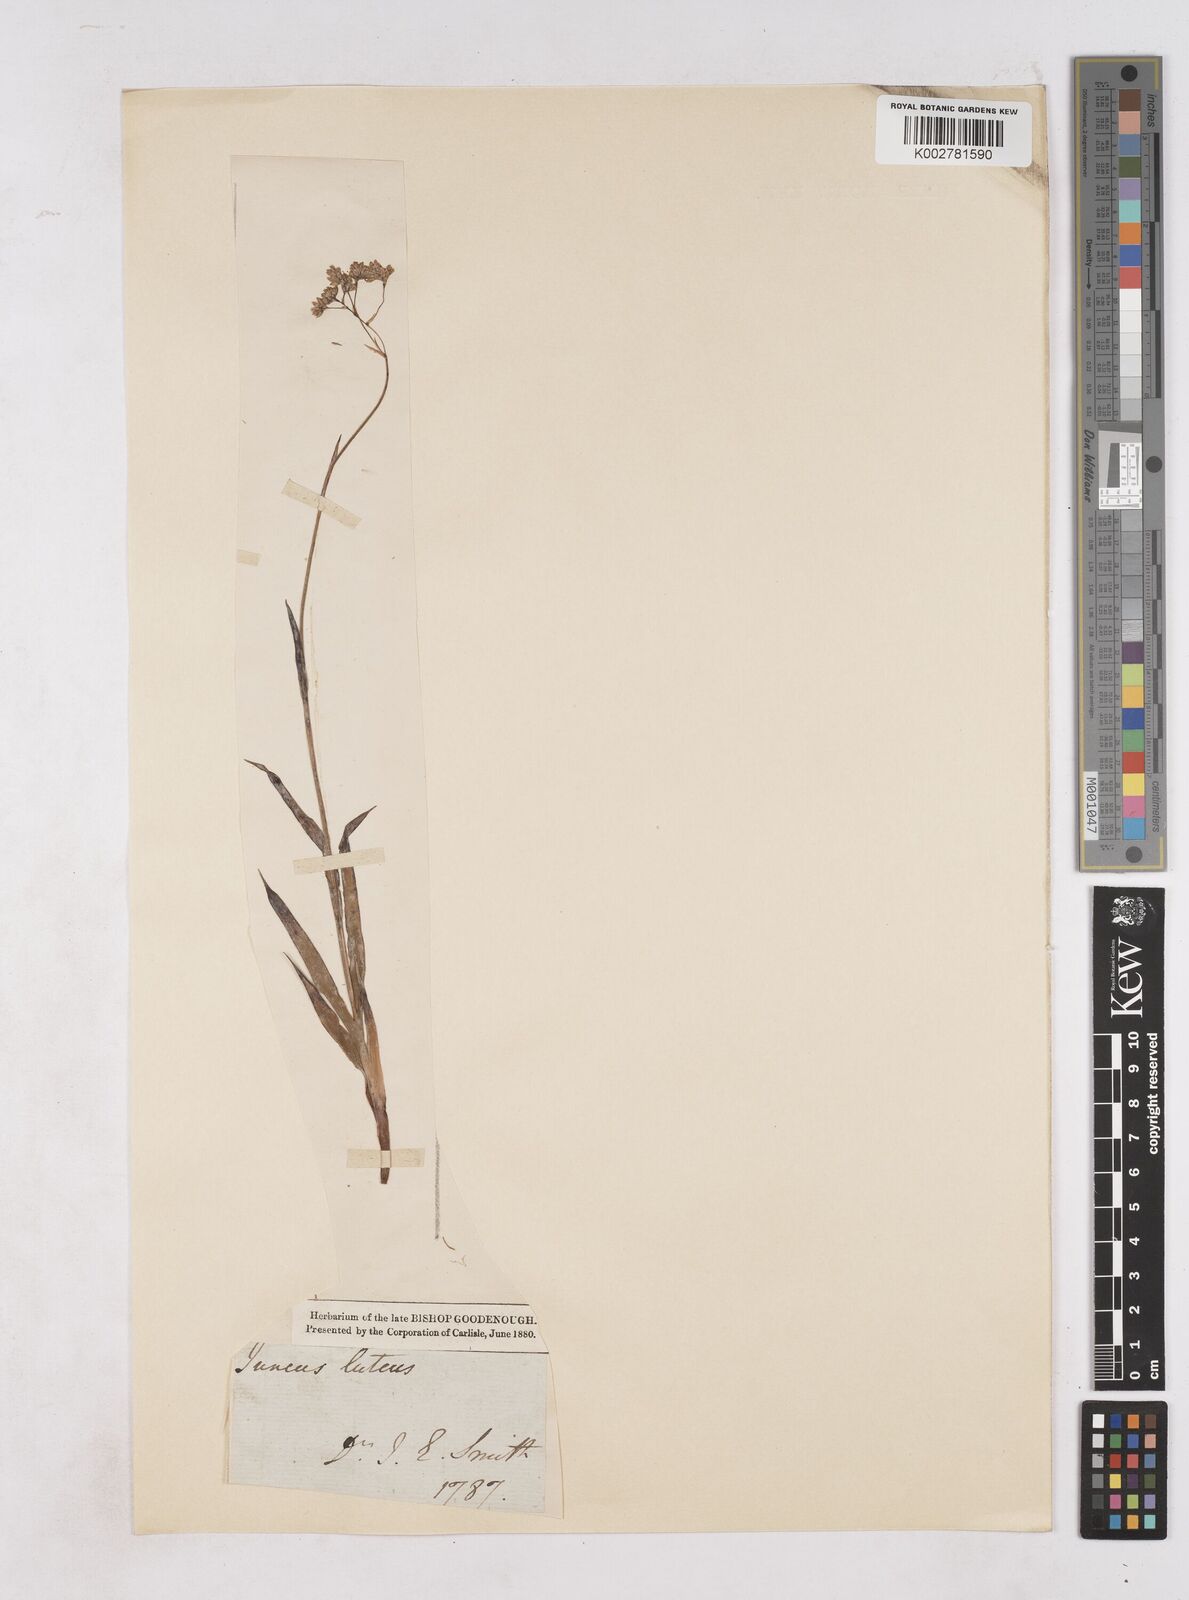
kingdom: Plantae
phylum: Tracheophyta
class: Liliopsida
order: Poales
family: Juncaceae
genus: Luzula
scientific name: Luzula lutea
